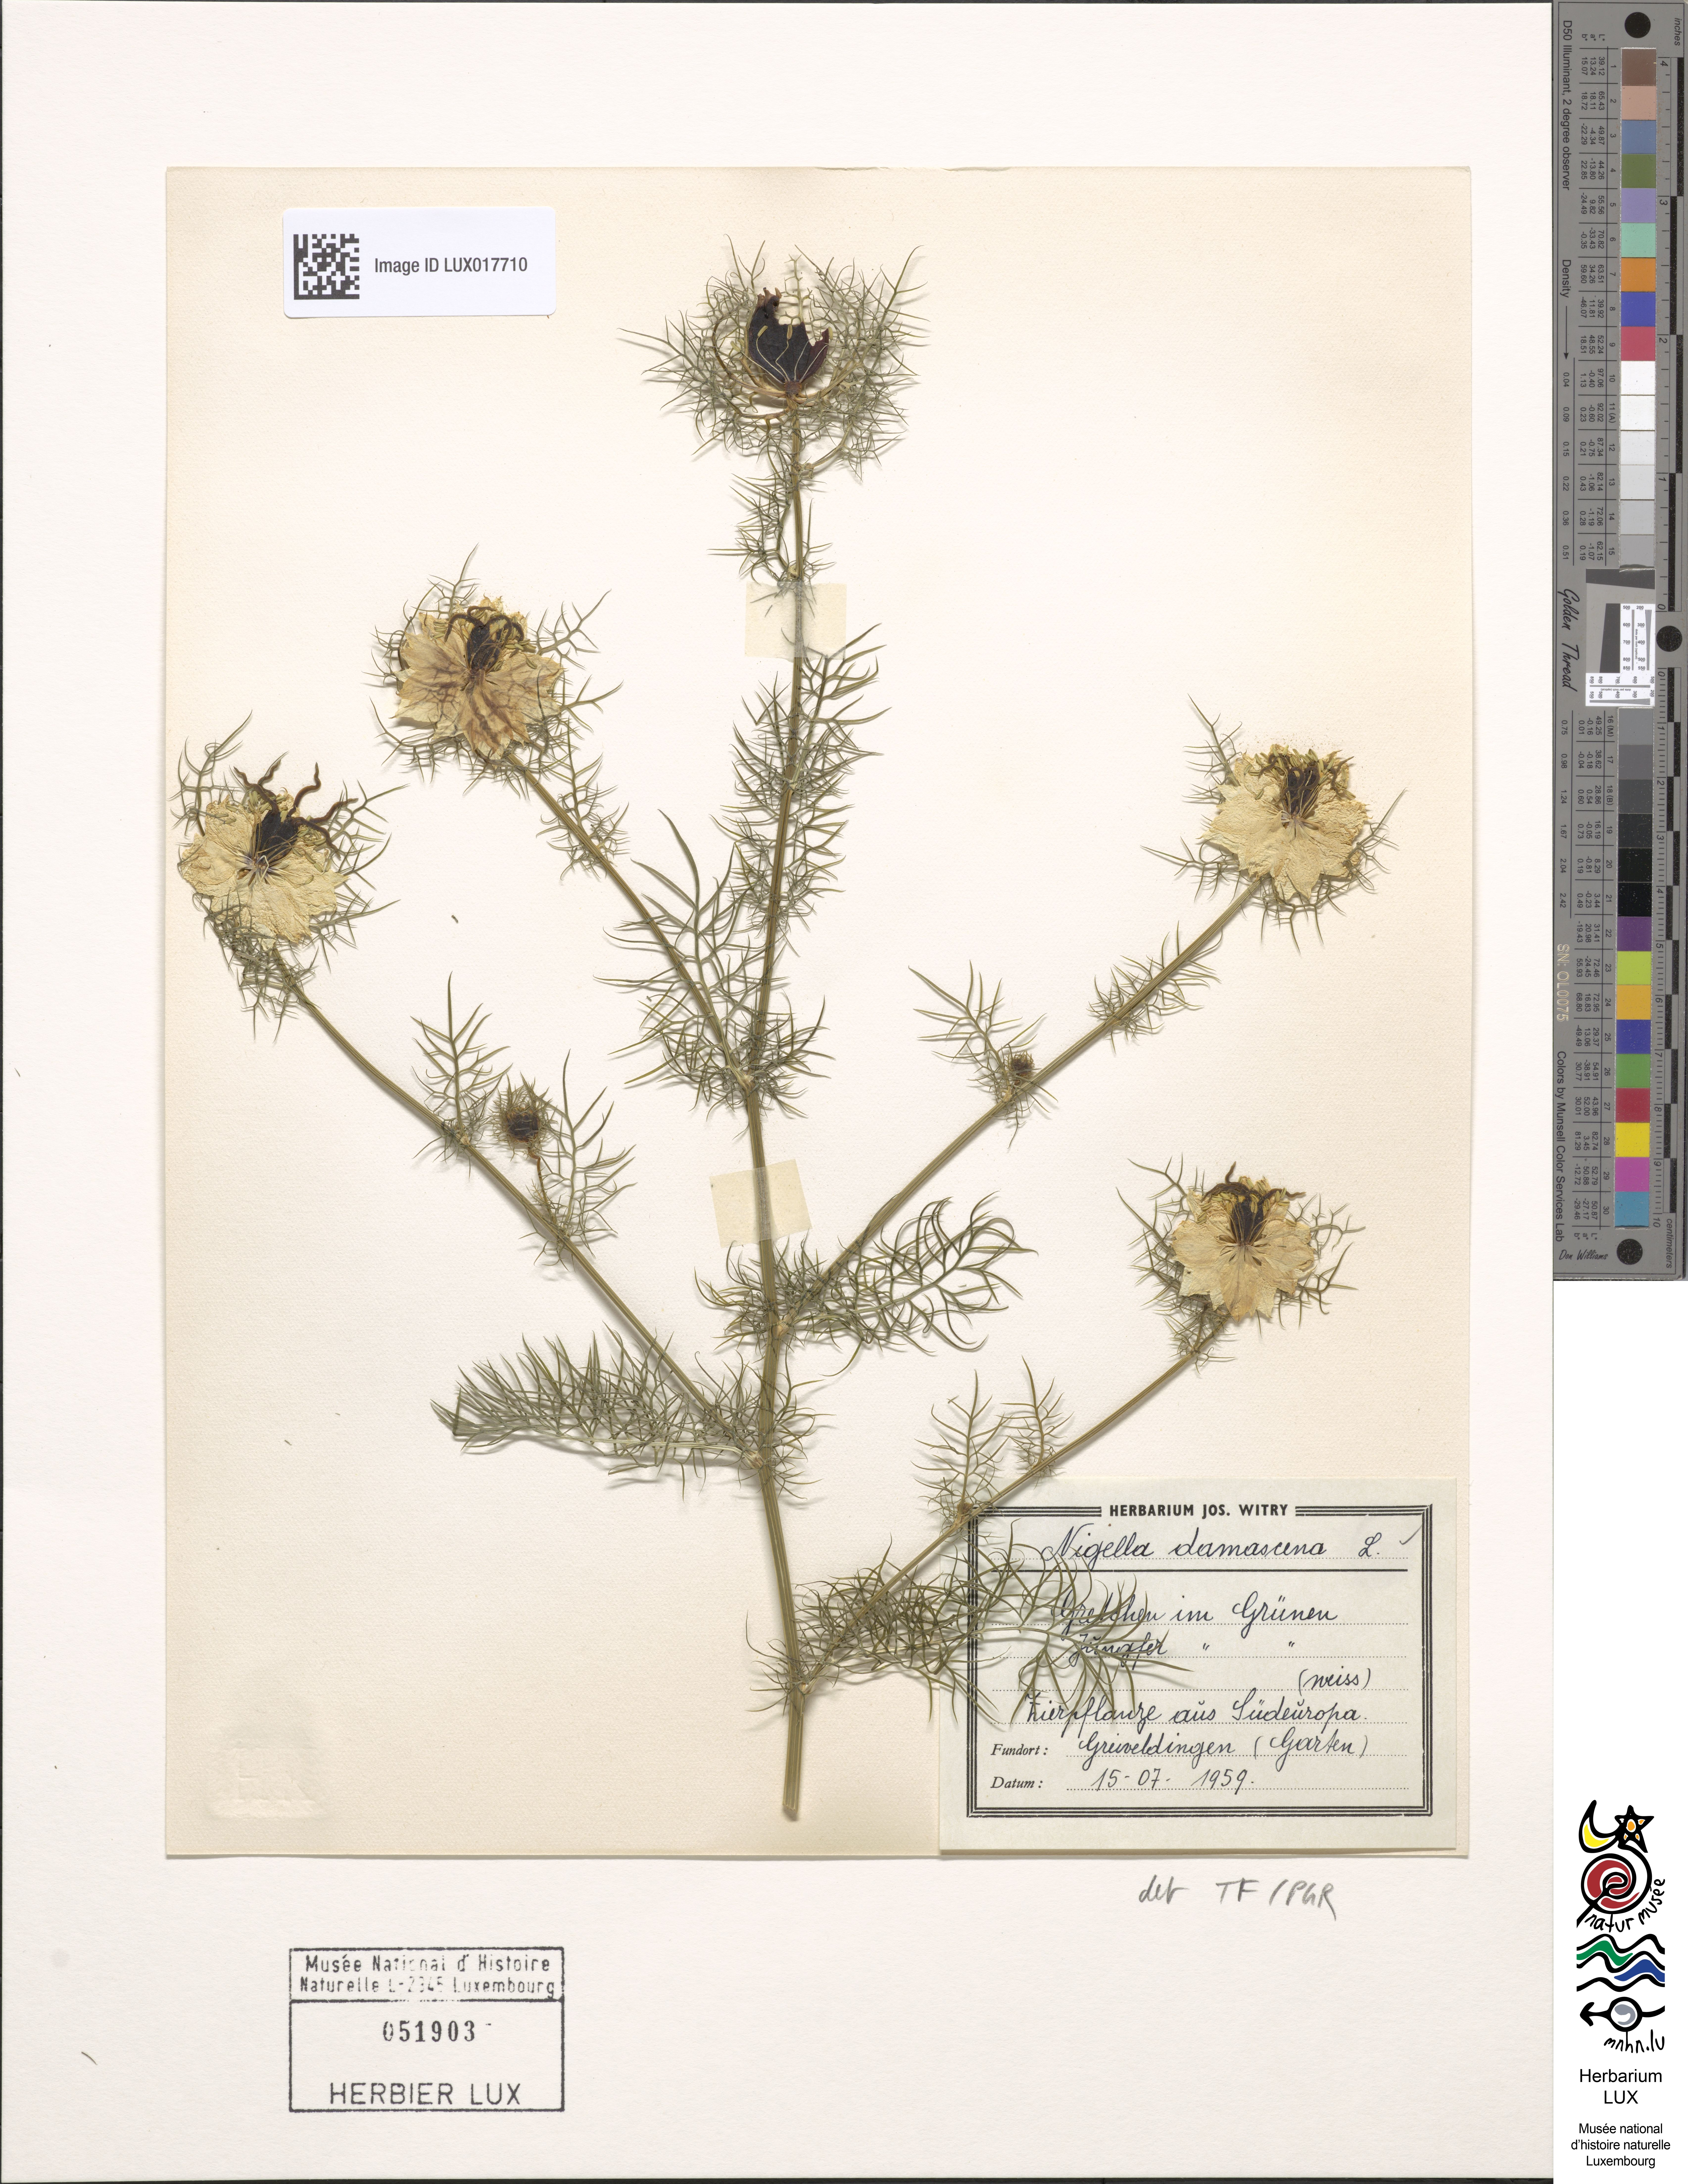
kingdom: Plantae
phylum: Tracheophyta
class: Magnoliopsida
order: Ranunculales
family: Ranunculaceae
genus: Nigella
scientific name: Nigella damascena
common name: Love-in-a-mist
